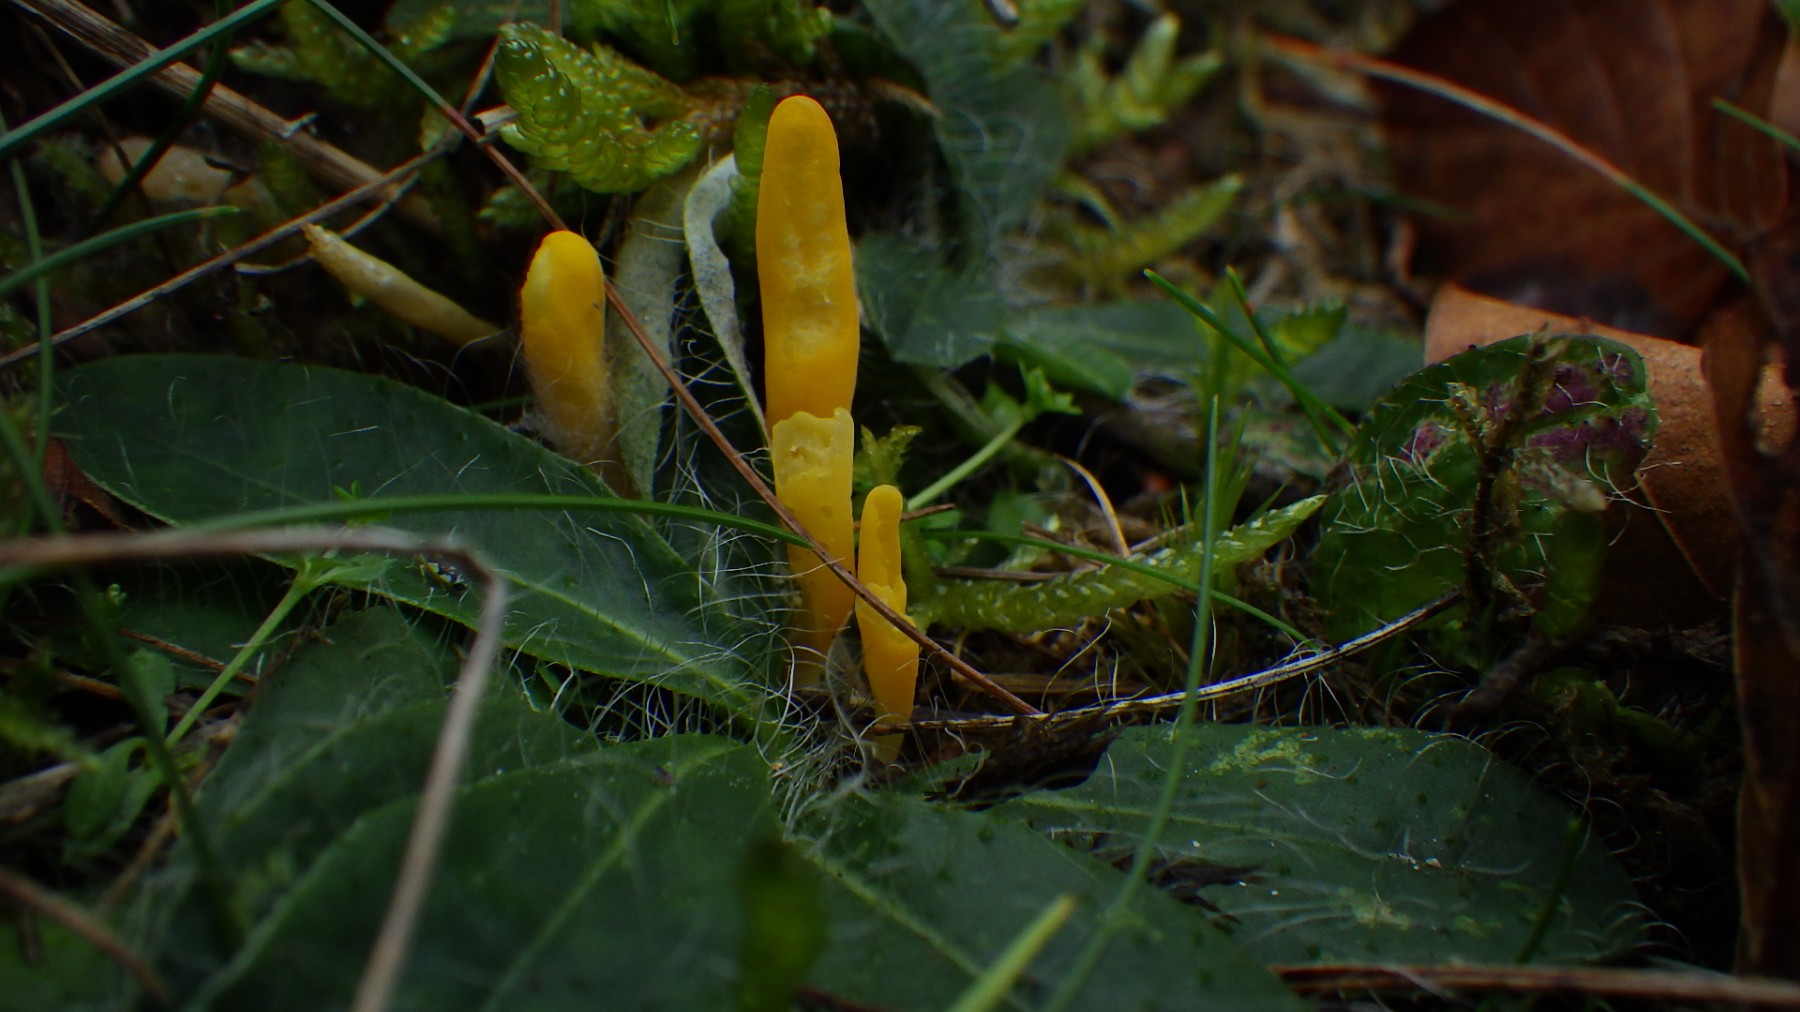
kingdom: Fungi
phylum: Basidiomycota
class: Agaricomycetes
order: Agaricales
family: Clavariaceae
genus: Clavulinopsis
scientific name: Clavulinopsis
